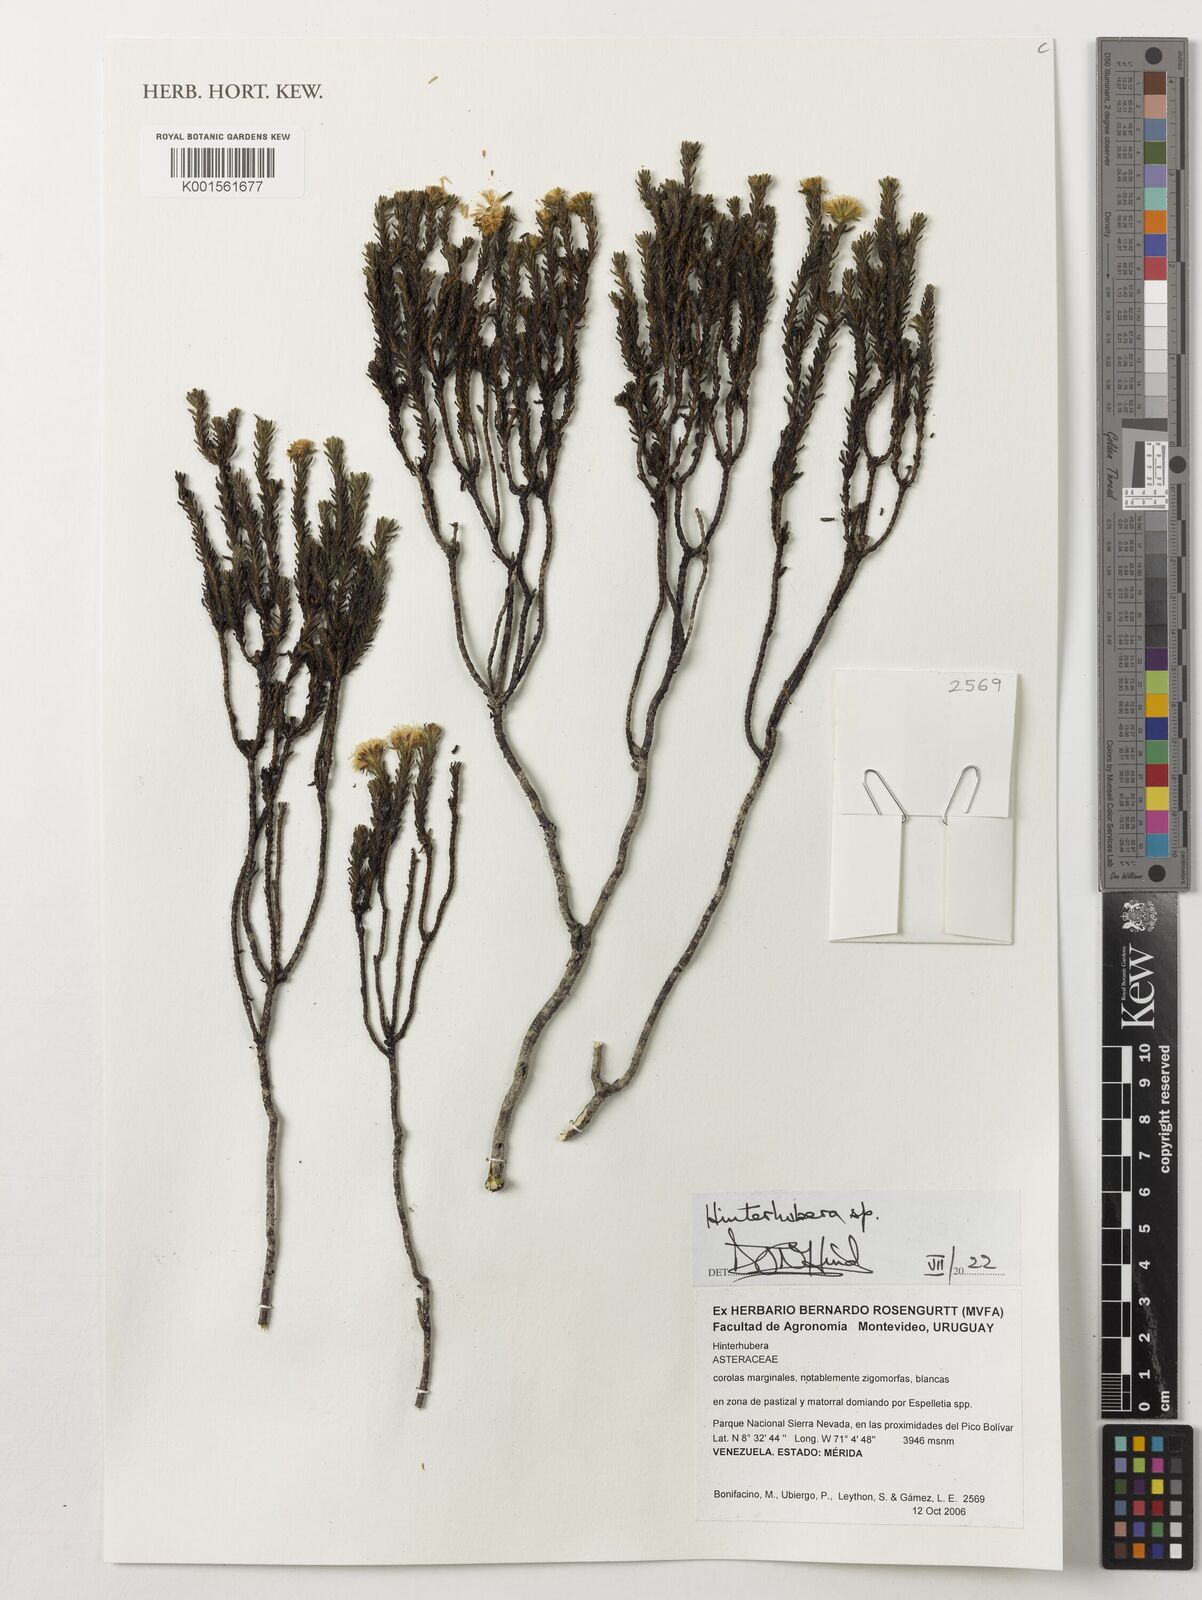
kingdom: Plantae
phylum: Tracheophyta
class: Magnoliopsida
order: Asterales
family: Asteraceae
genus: Hinterhubera
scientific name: Hinterhubera
